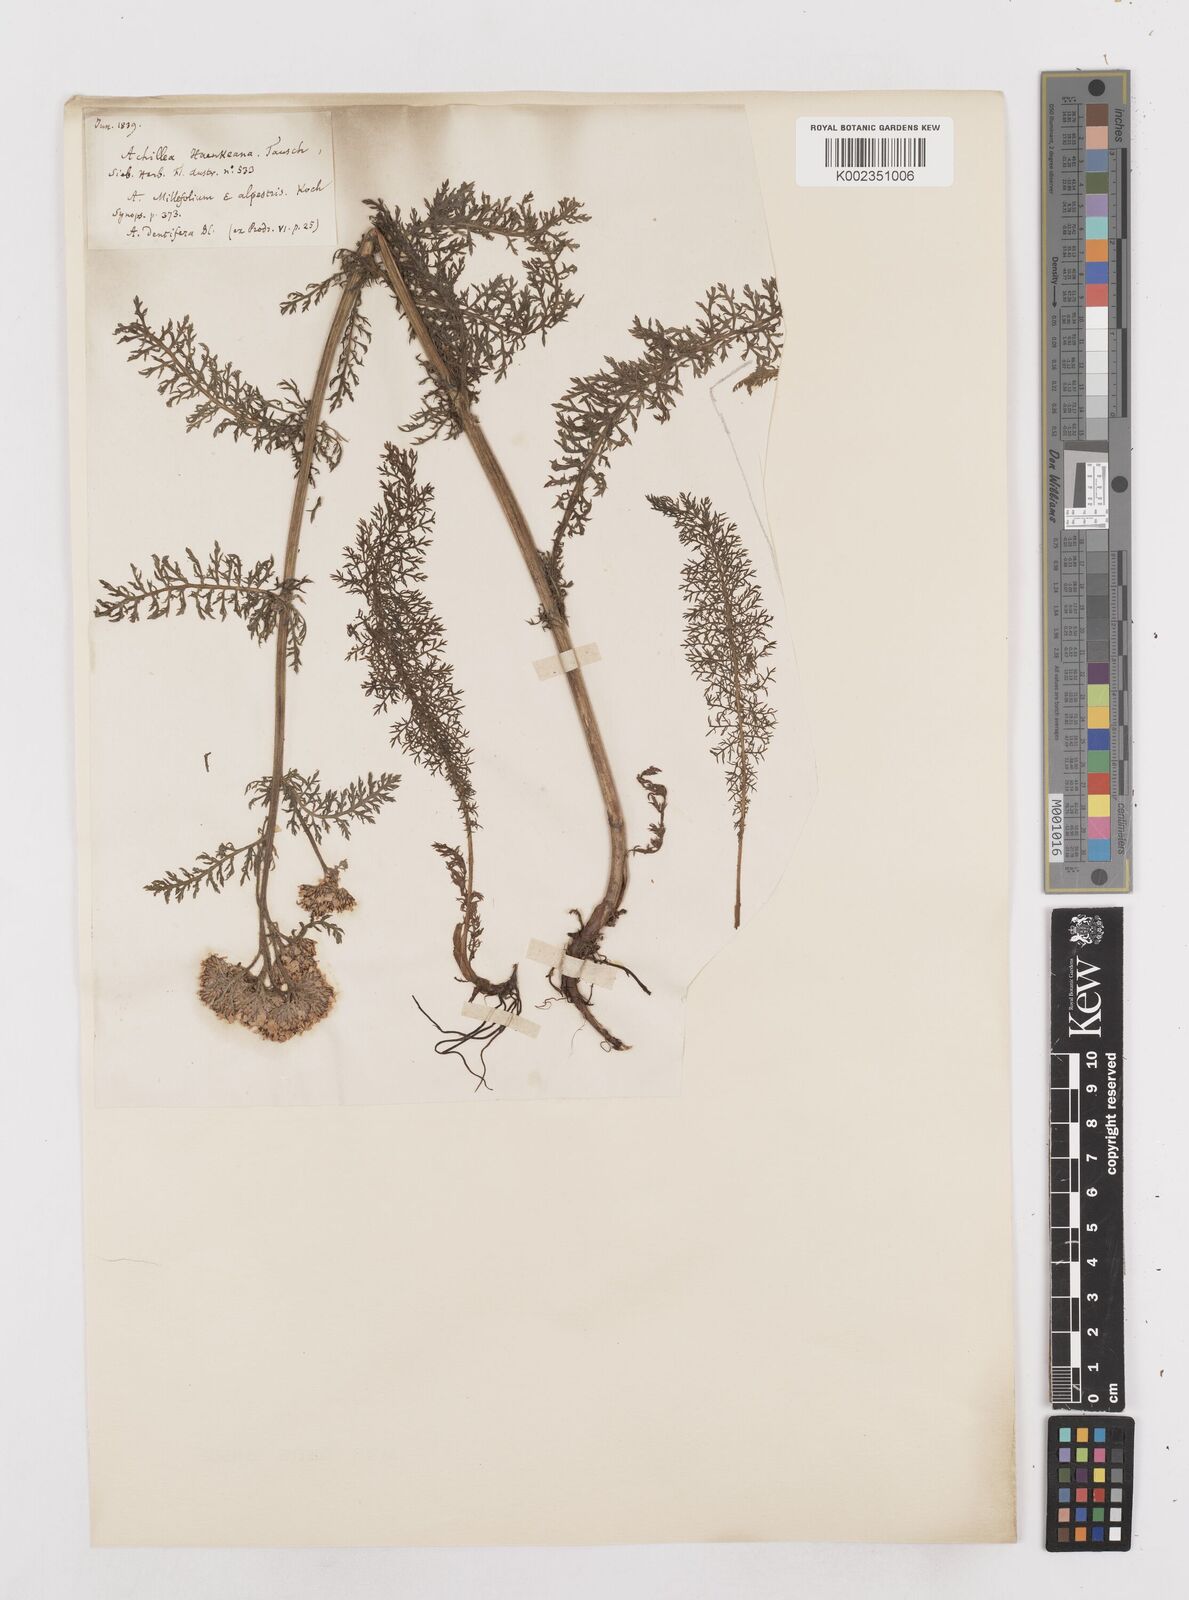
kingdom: Plantae
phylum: Tracheophyta
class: Magnoliopsida
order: Asterales
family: Asteraceae
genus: Achillea
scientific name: Achillea millefolium
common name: Yarrow
